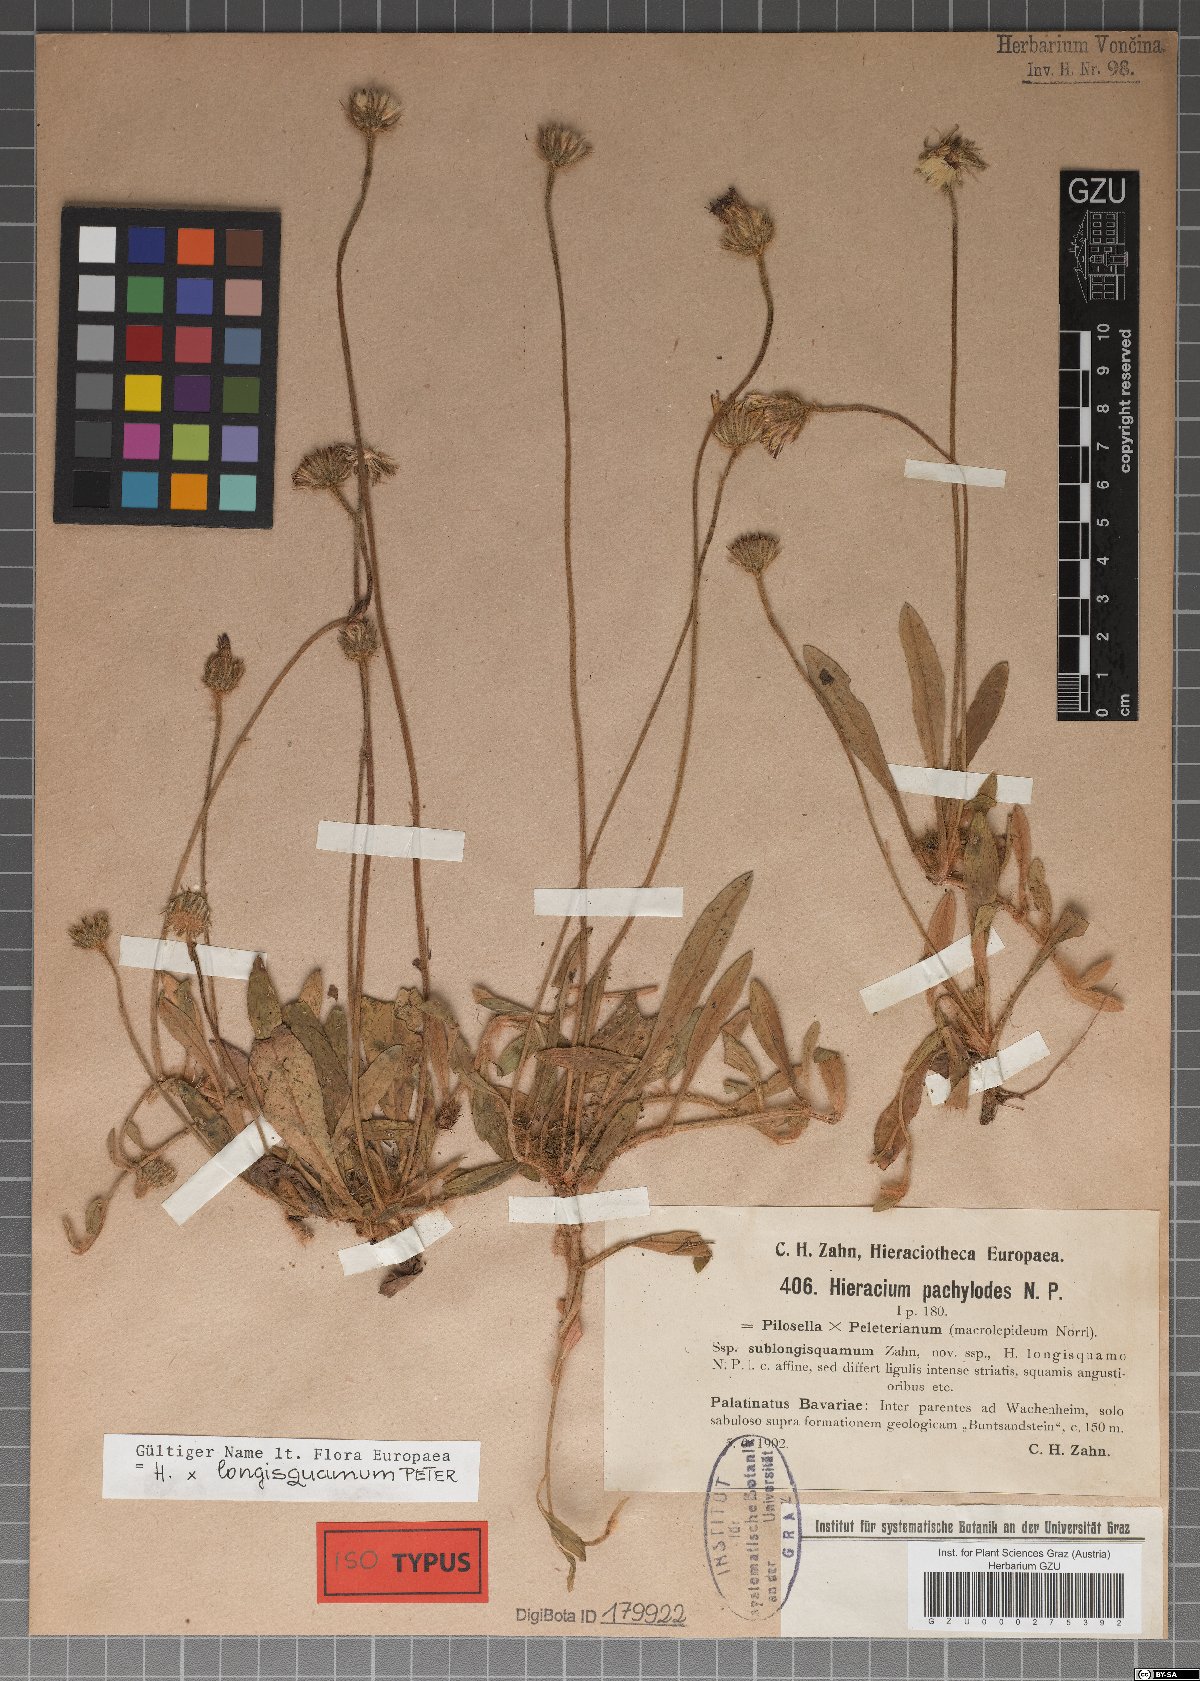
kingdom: Plantae
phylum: Tracheophyta
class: Magnoliopsida
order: Asterales
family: Asteraceae
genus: Pilosella
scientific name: Pilosella longisquama
